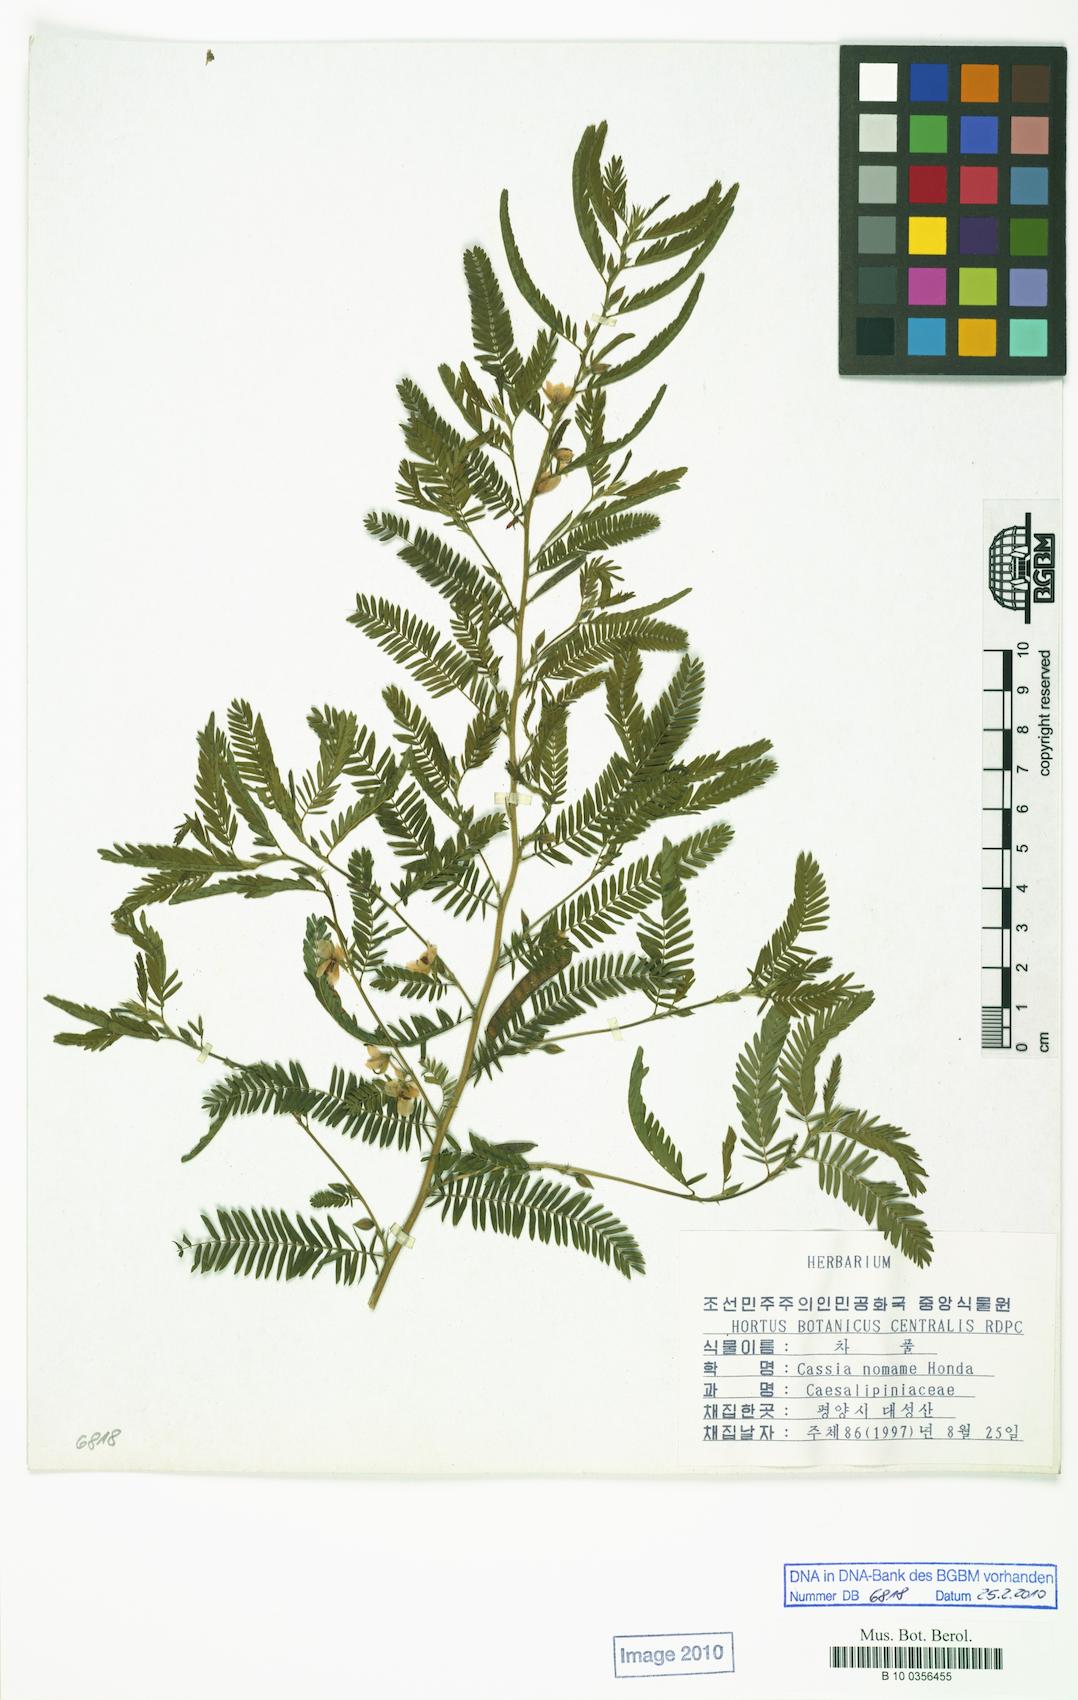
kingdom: Plantae
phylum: Tracheophyta
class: Magnoliopsida
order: Fabales
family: Fabaceae
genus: Chamaecrista
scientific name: Chamaecrista nomame
